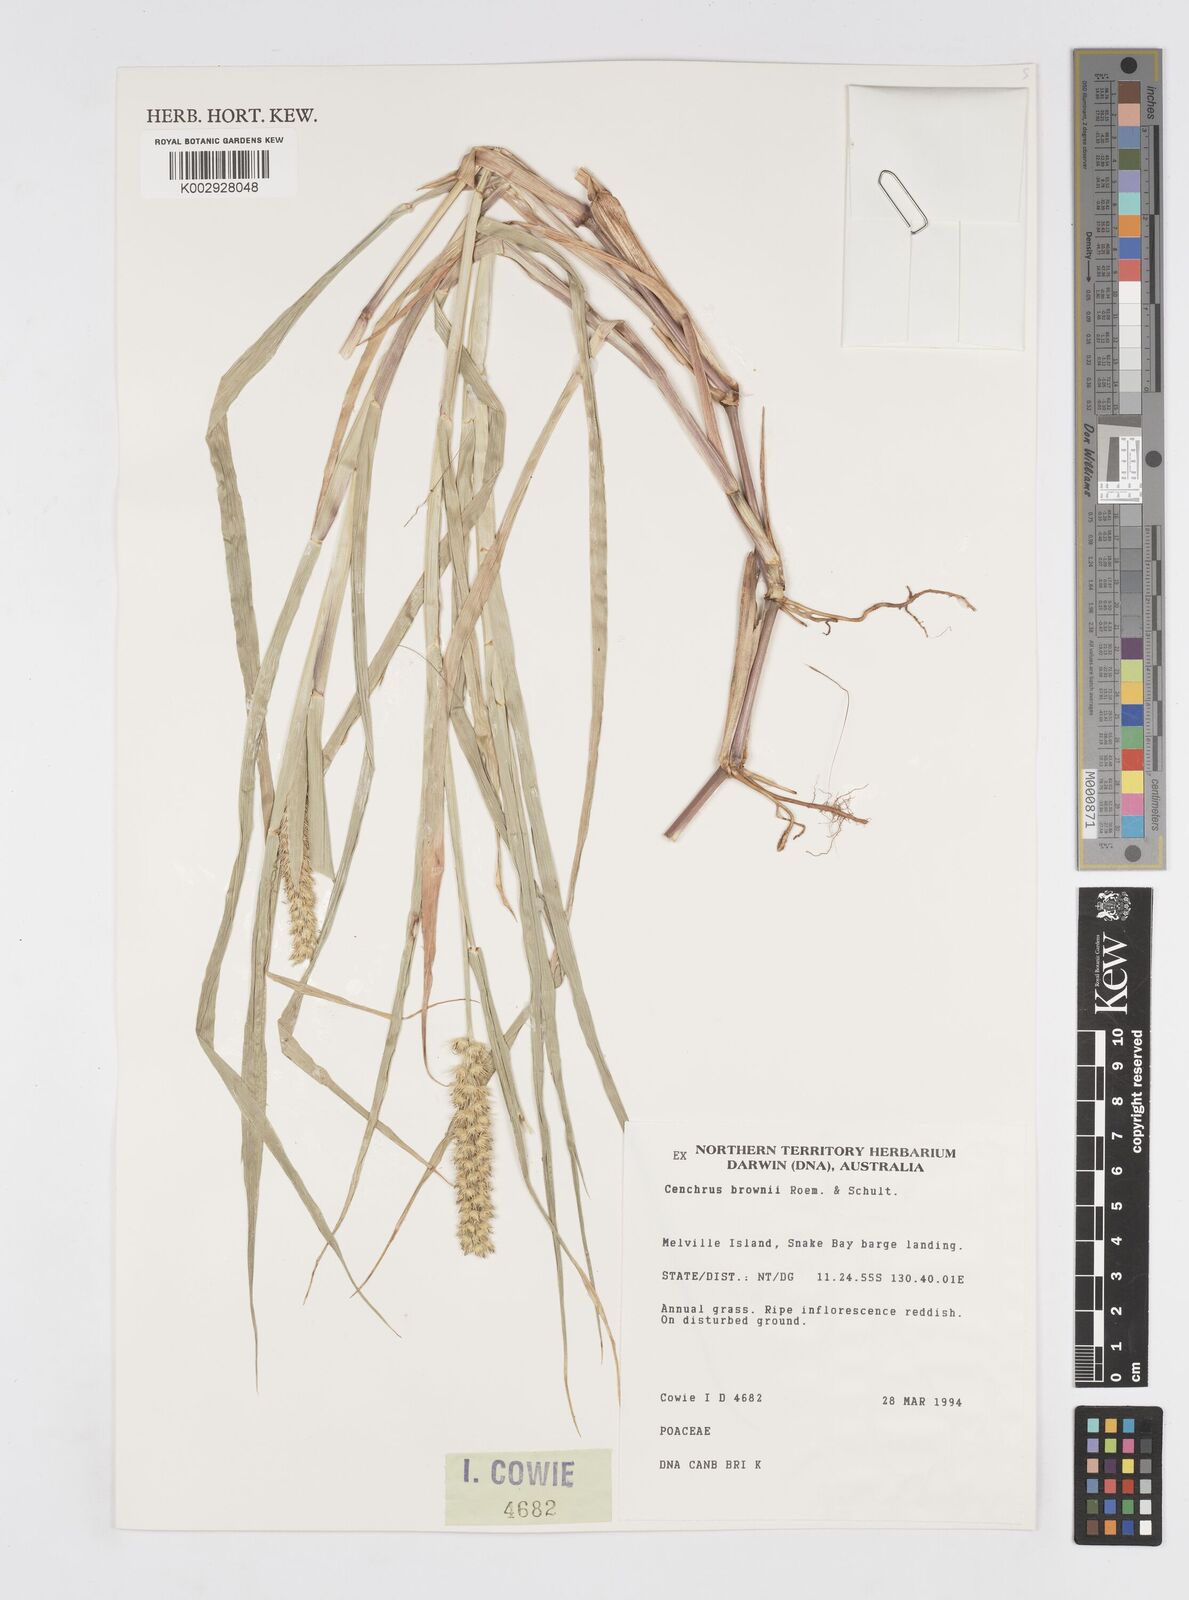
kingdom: Plantae
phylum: Tracheophyta
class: Liliopsida
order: Poales
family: Poaceae
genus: Cenchrus
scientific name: Cenchrus brownii
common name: Slim-bristle sandbur
